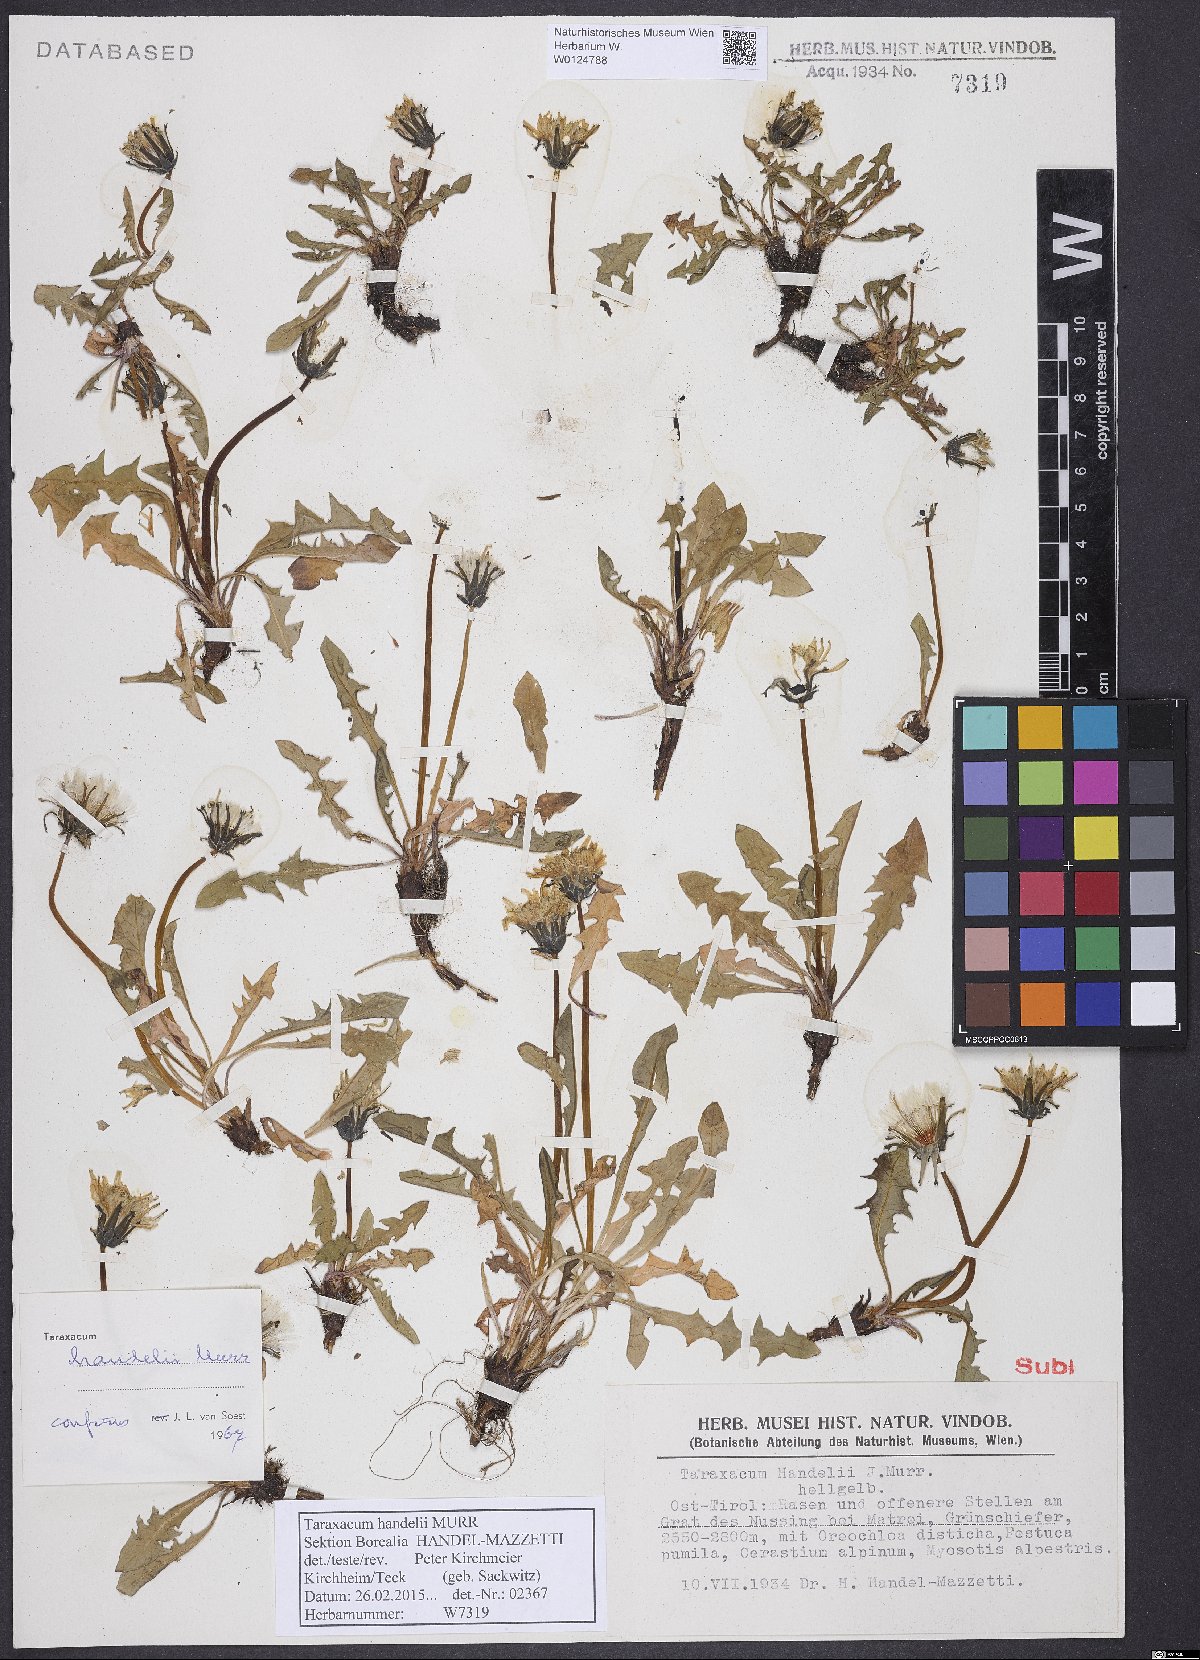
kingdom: Plantae
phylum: Tracheophyta
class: Magnoliopsida
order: Asterales
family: Asteraceae
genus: Taraxacum
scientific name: Taraxacum handelii
